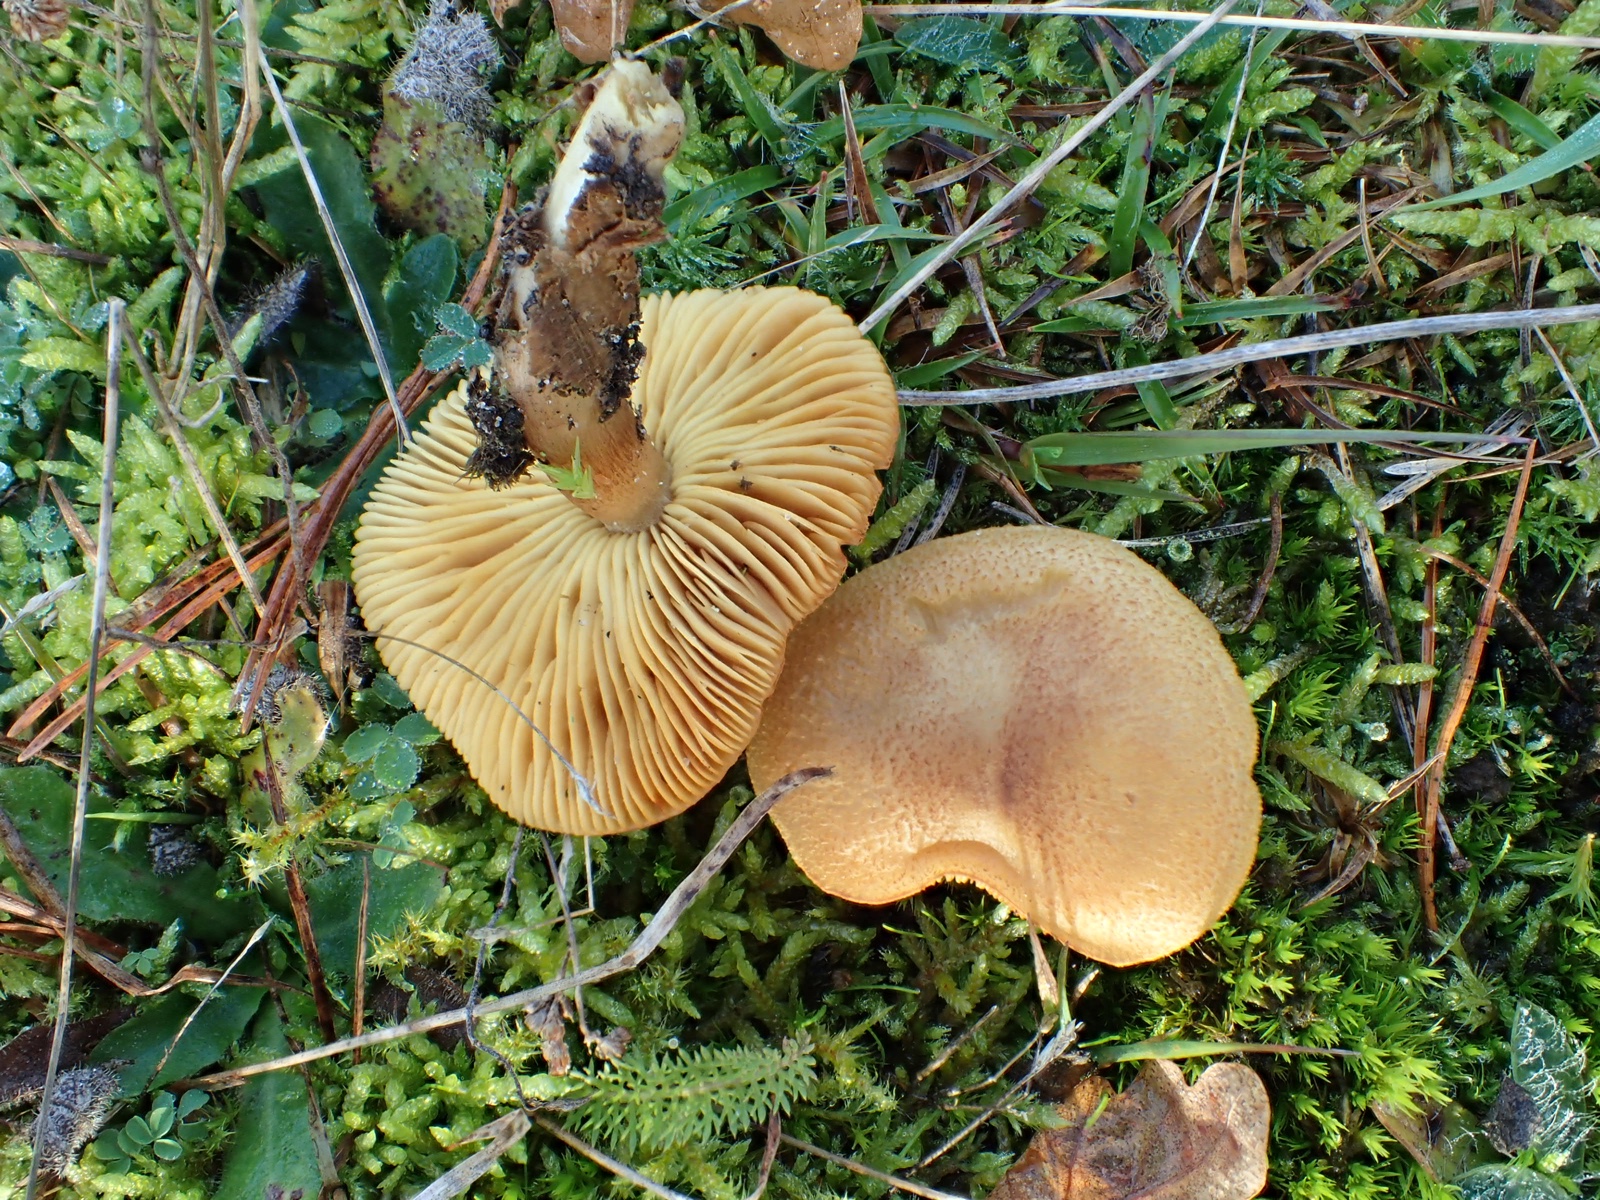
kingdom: Fungi
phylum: Basidiomycota
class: Agaricomycetes
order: Agaricales
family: Tricholomataceae
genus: Tricholomopsis
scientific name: Tricholomopsis rutilans
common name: purpur-væbnerhat
